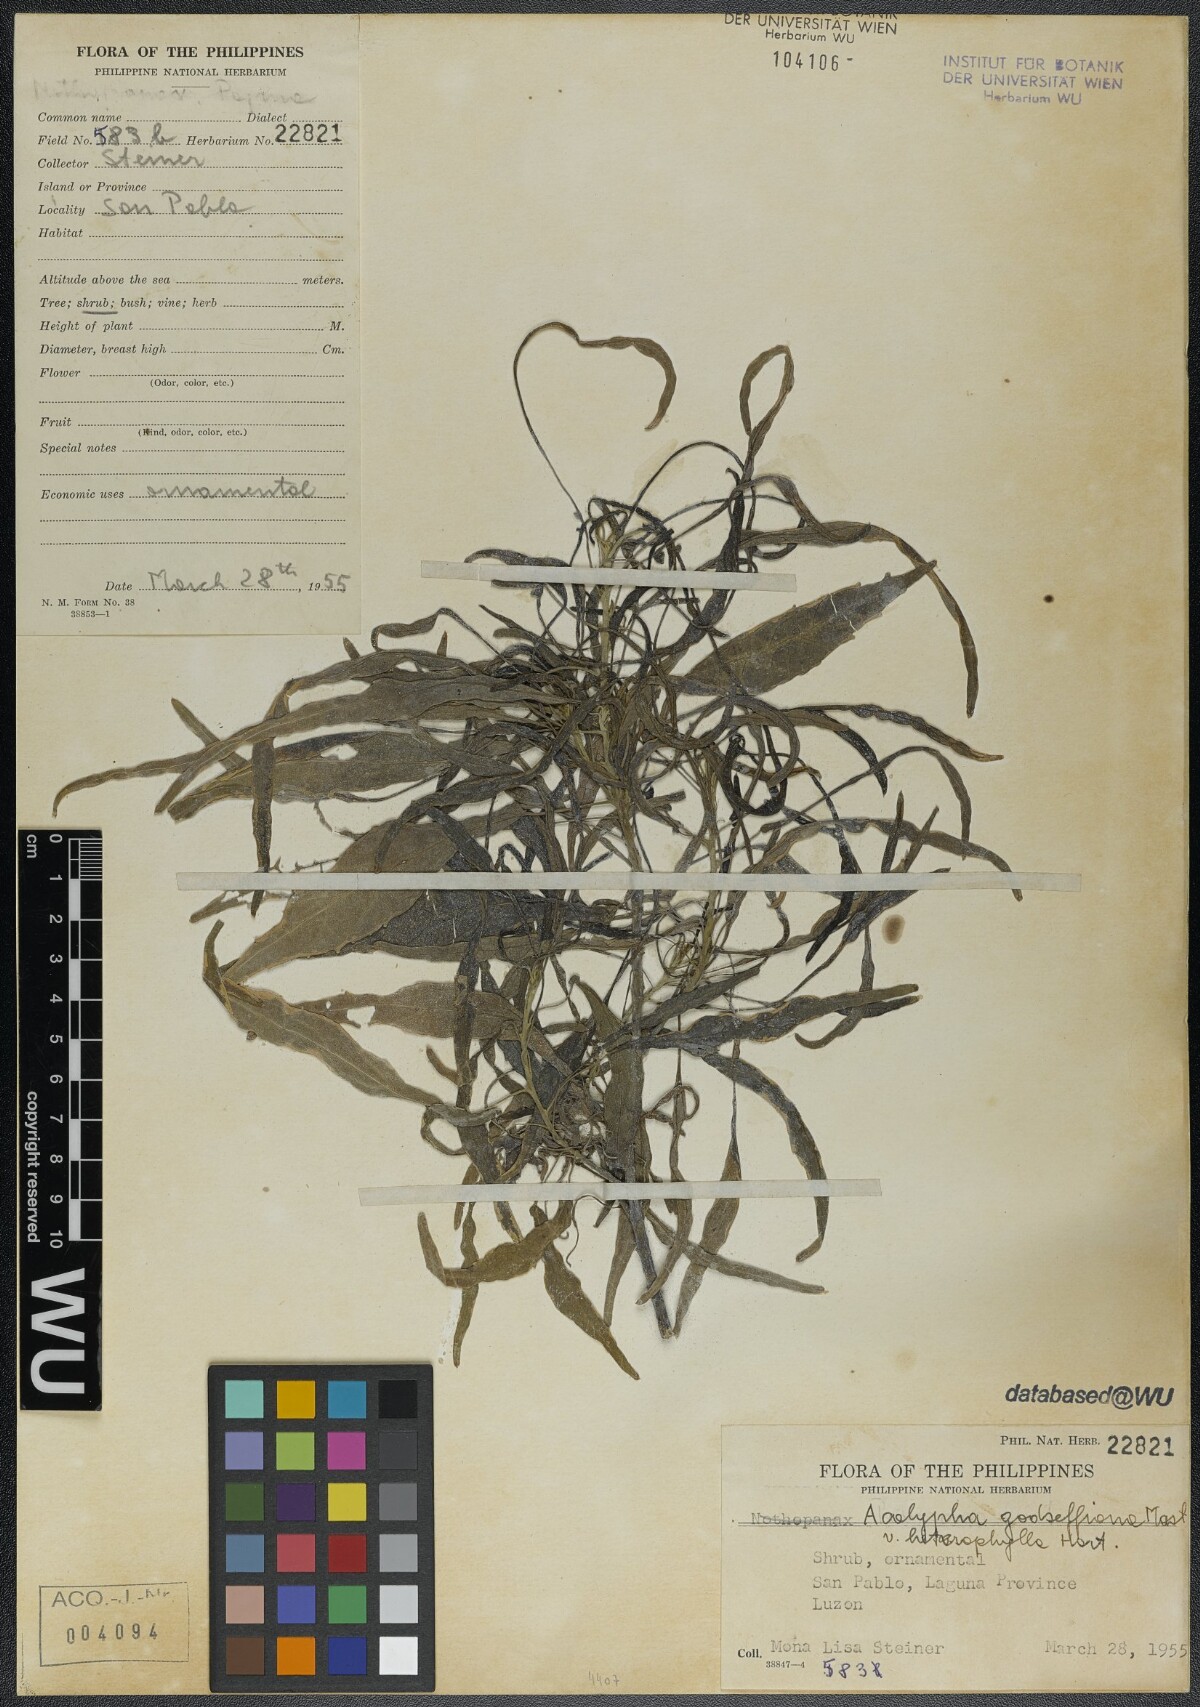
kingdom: Plantae
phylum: Tracheophyta
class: Magnoliopsida
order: Malpighiales
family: Euphorbiaceae
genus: Acalypha
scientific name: Acalypha wilkesiana
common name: Jacob's coat
